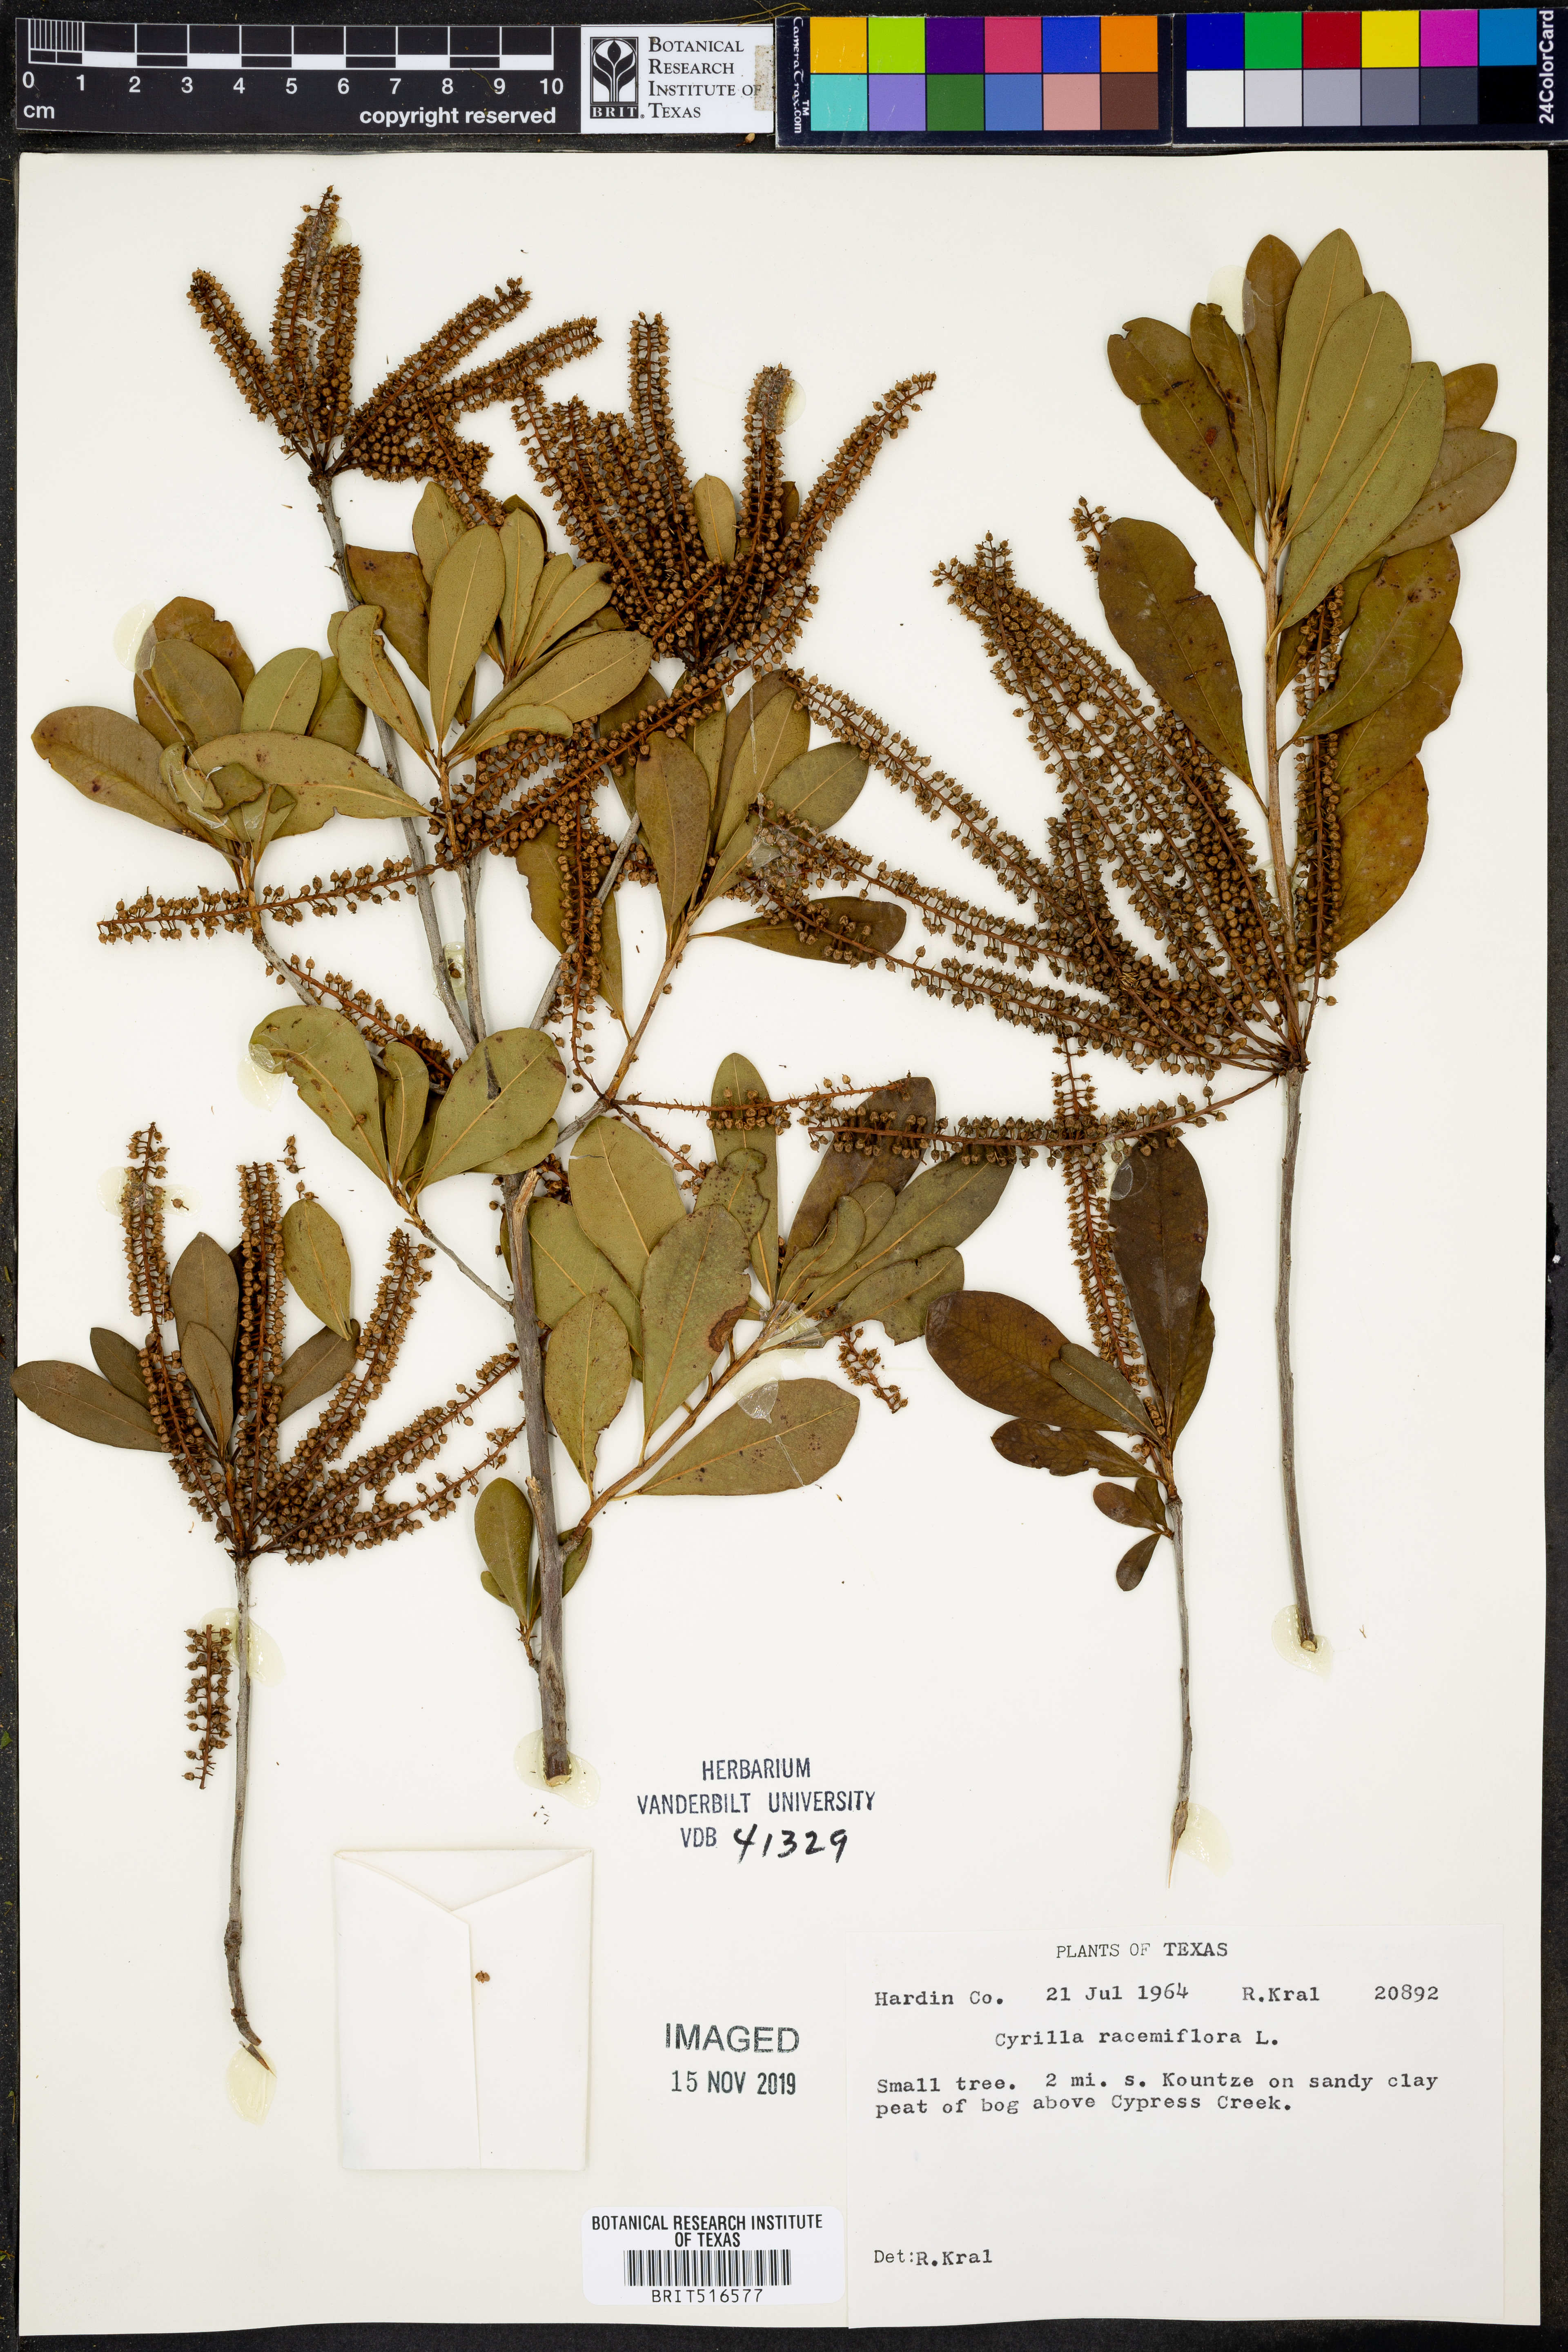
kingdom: Plantae
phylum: Tracheophyta
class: Magnoliopsida
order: Ericales
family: Cyrillaceae
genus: Cyrilla
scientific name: Cyrilla racemiflora
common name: Black titi
